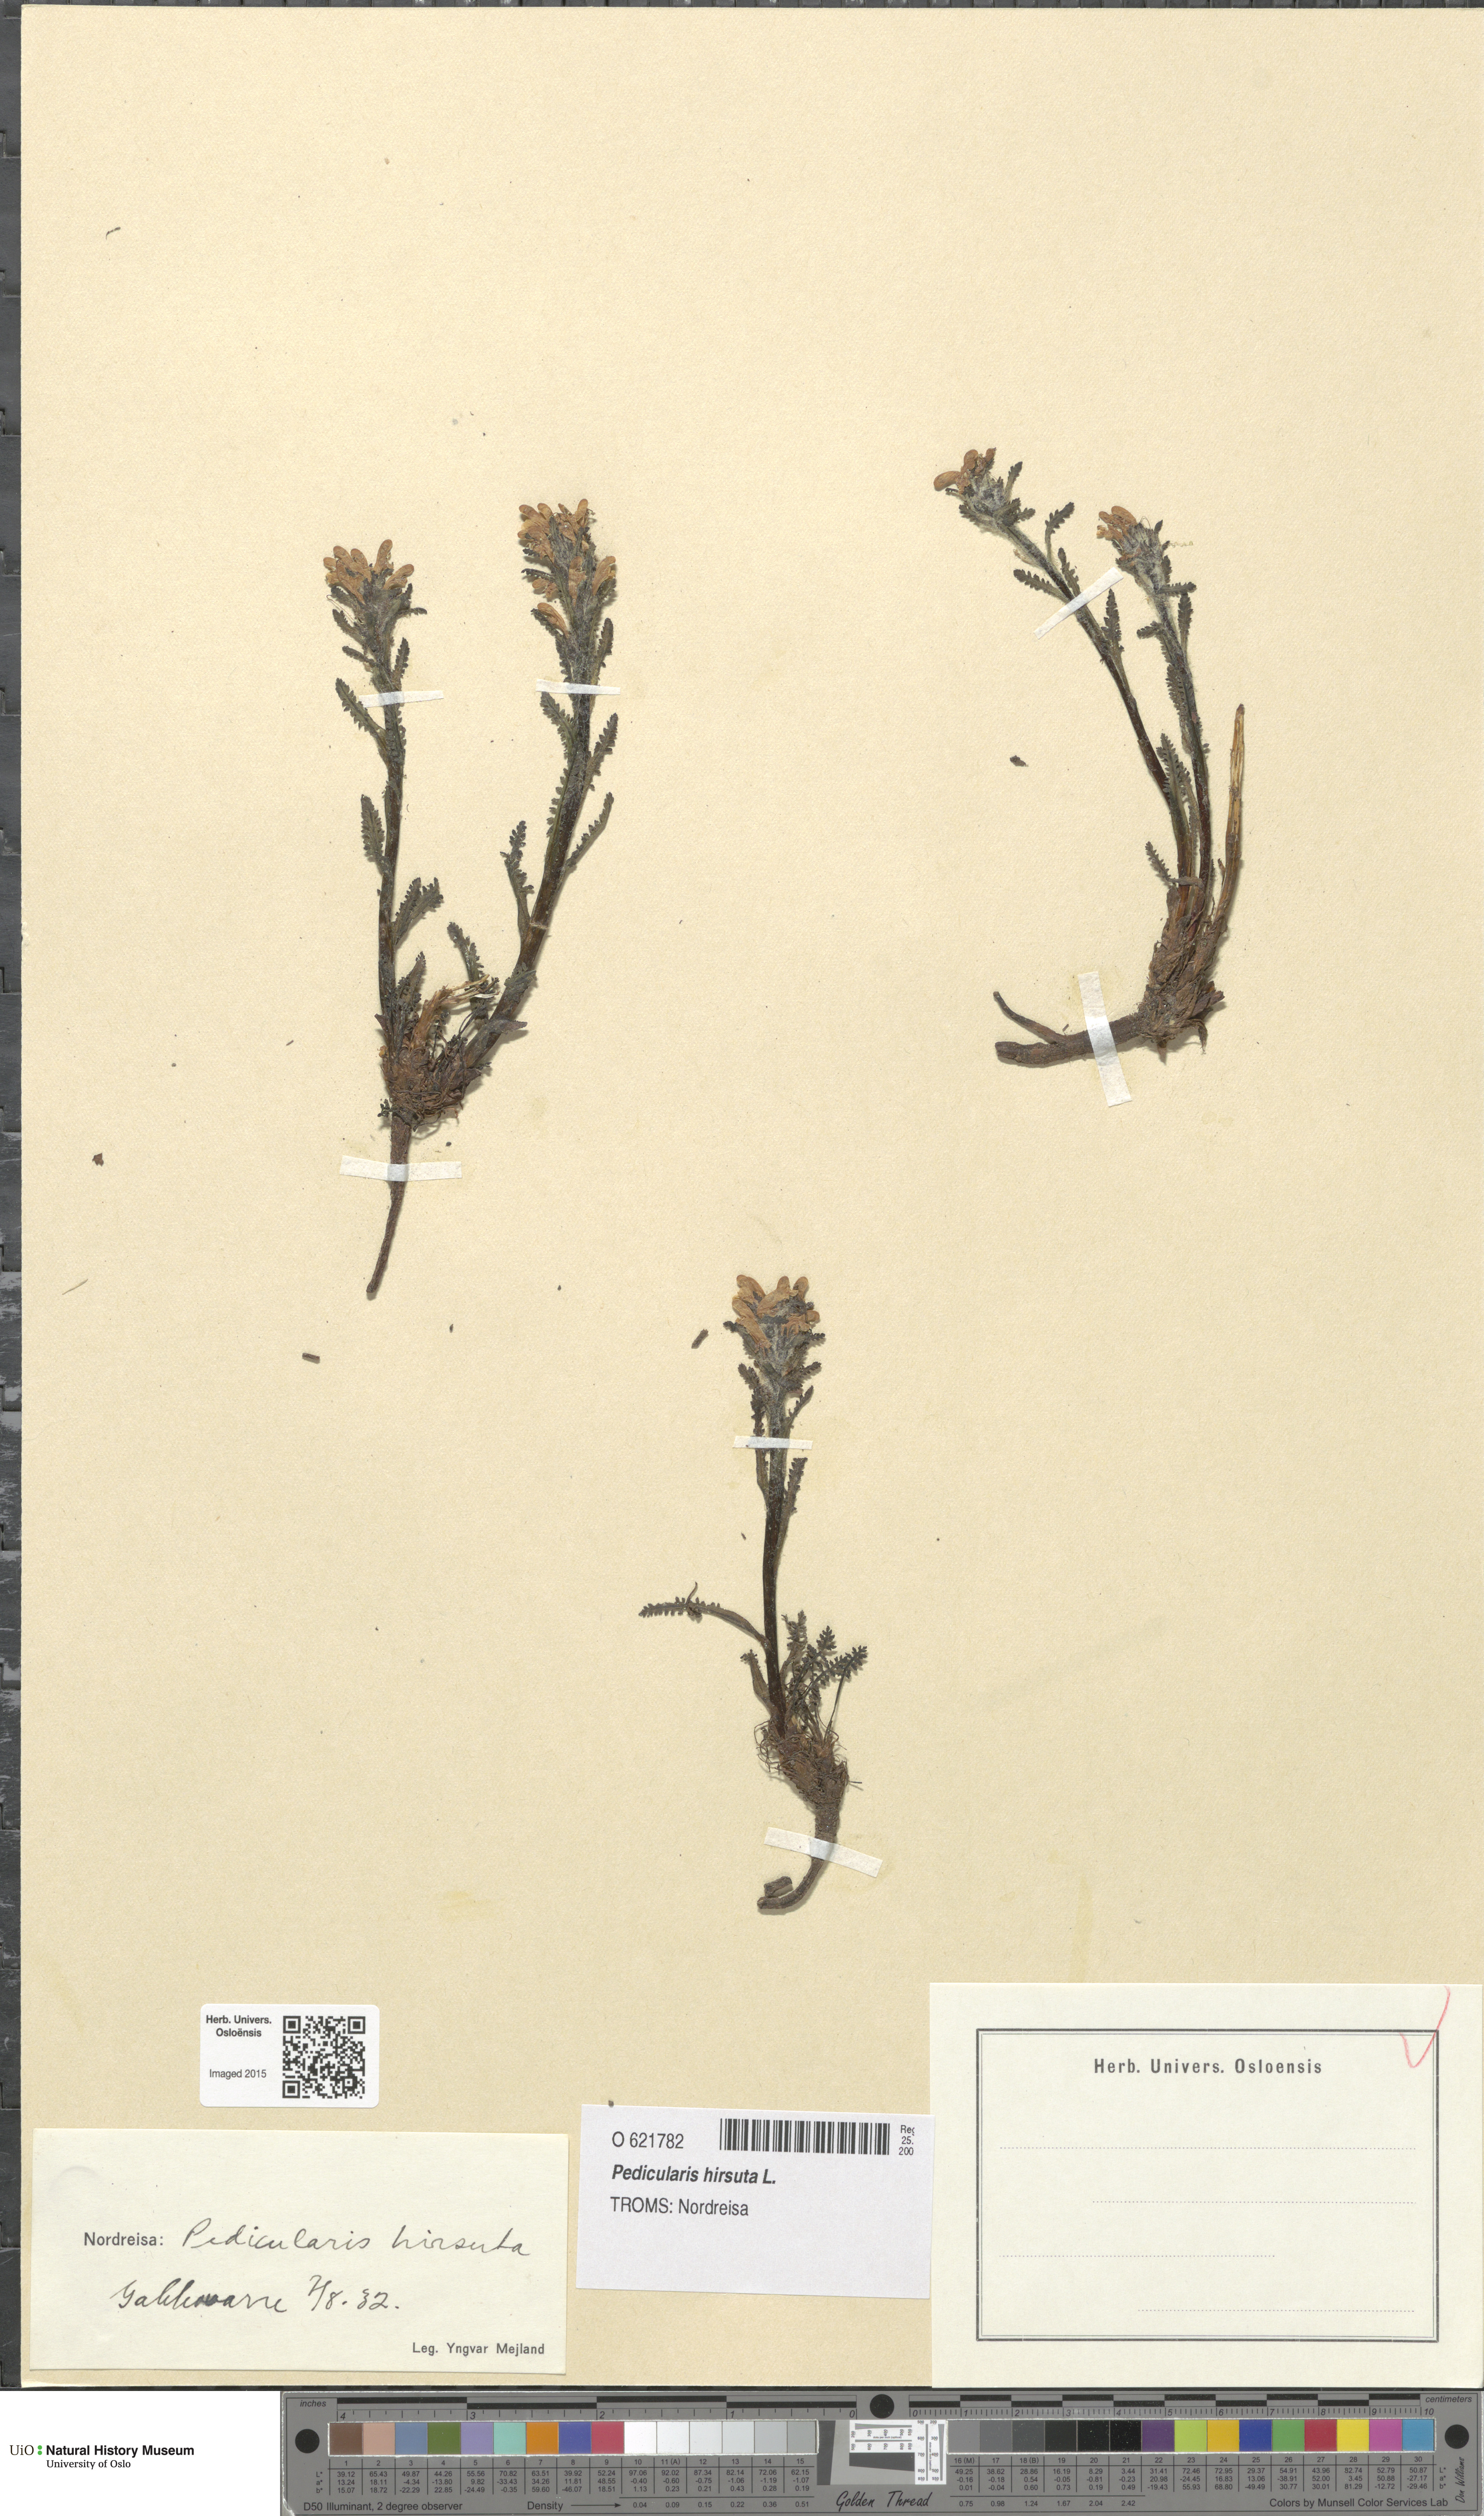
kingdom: Plantae
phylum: Tracheophyta
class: Magnoliopsida
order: Lamiales
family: Orobanchaceae
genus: Pedicularis
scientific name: Pedicularis hirsuta
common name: Hairy lousewort
